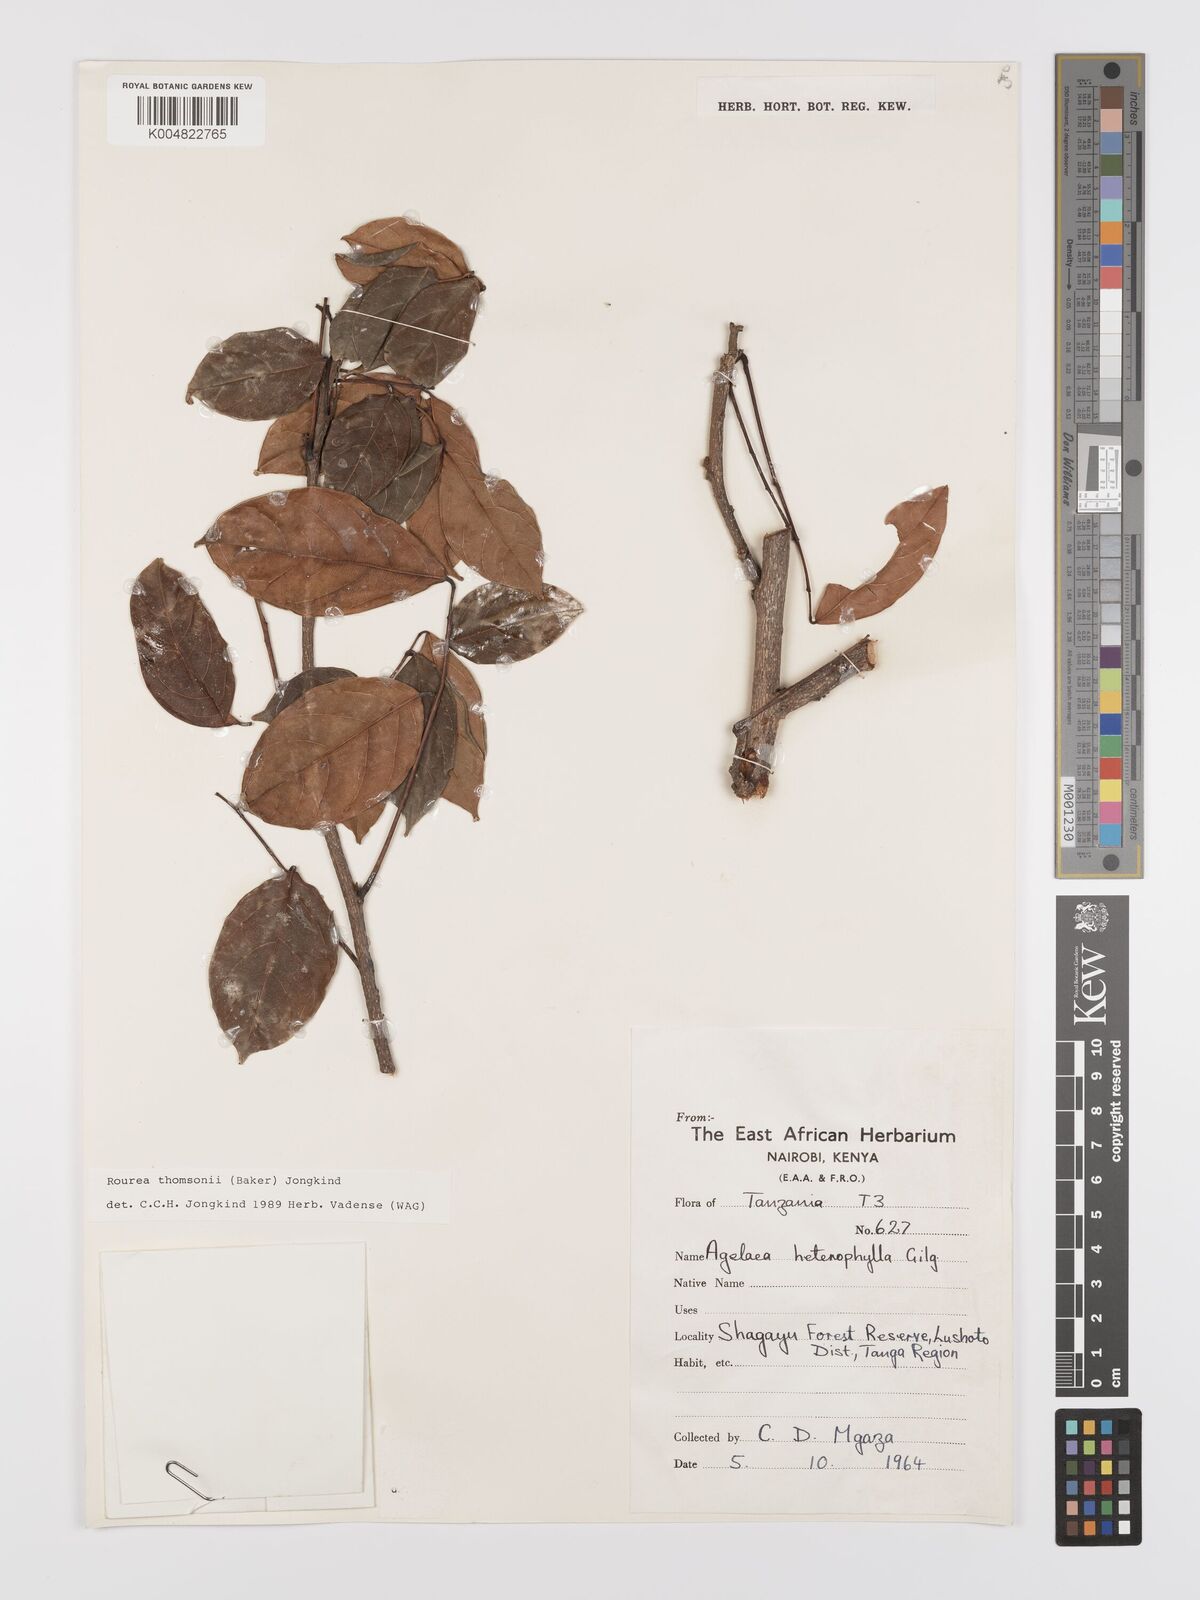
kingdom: Plantae
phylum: Tracheophyta
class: Magnoliopsida
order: Oxalidales
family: Connaraceae
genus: Rourea
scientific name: Rourea thomsonii
